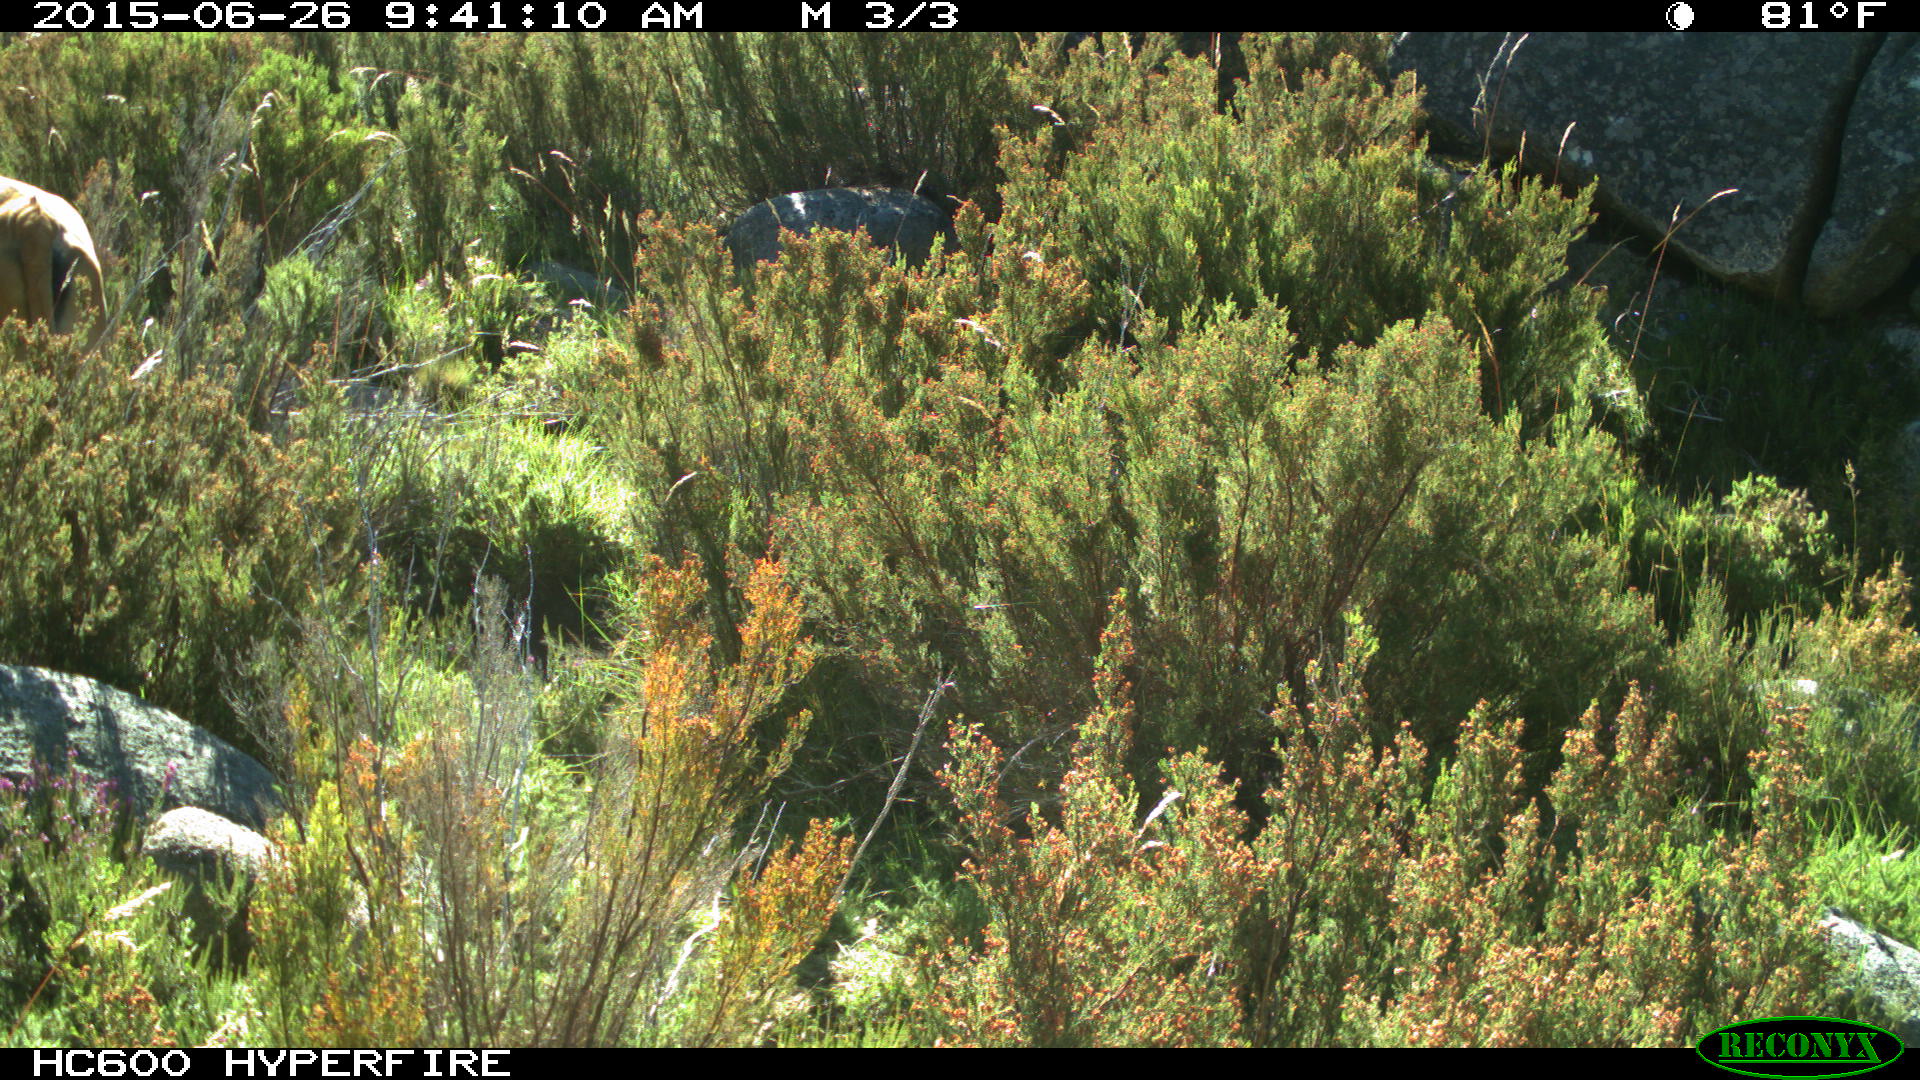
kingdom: Animalia
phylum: Chordata
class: Mammalia
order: Artiodactyla
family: Bovidae
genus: Bos
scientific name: Bos taurus
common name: Domesticated cattle
